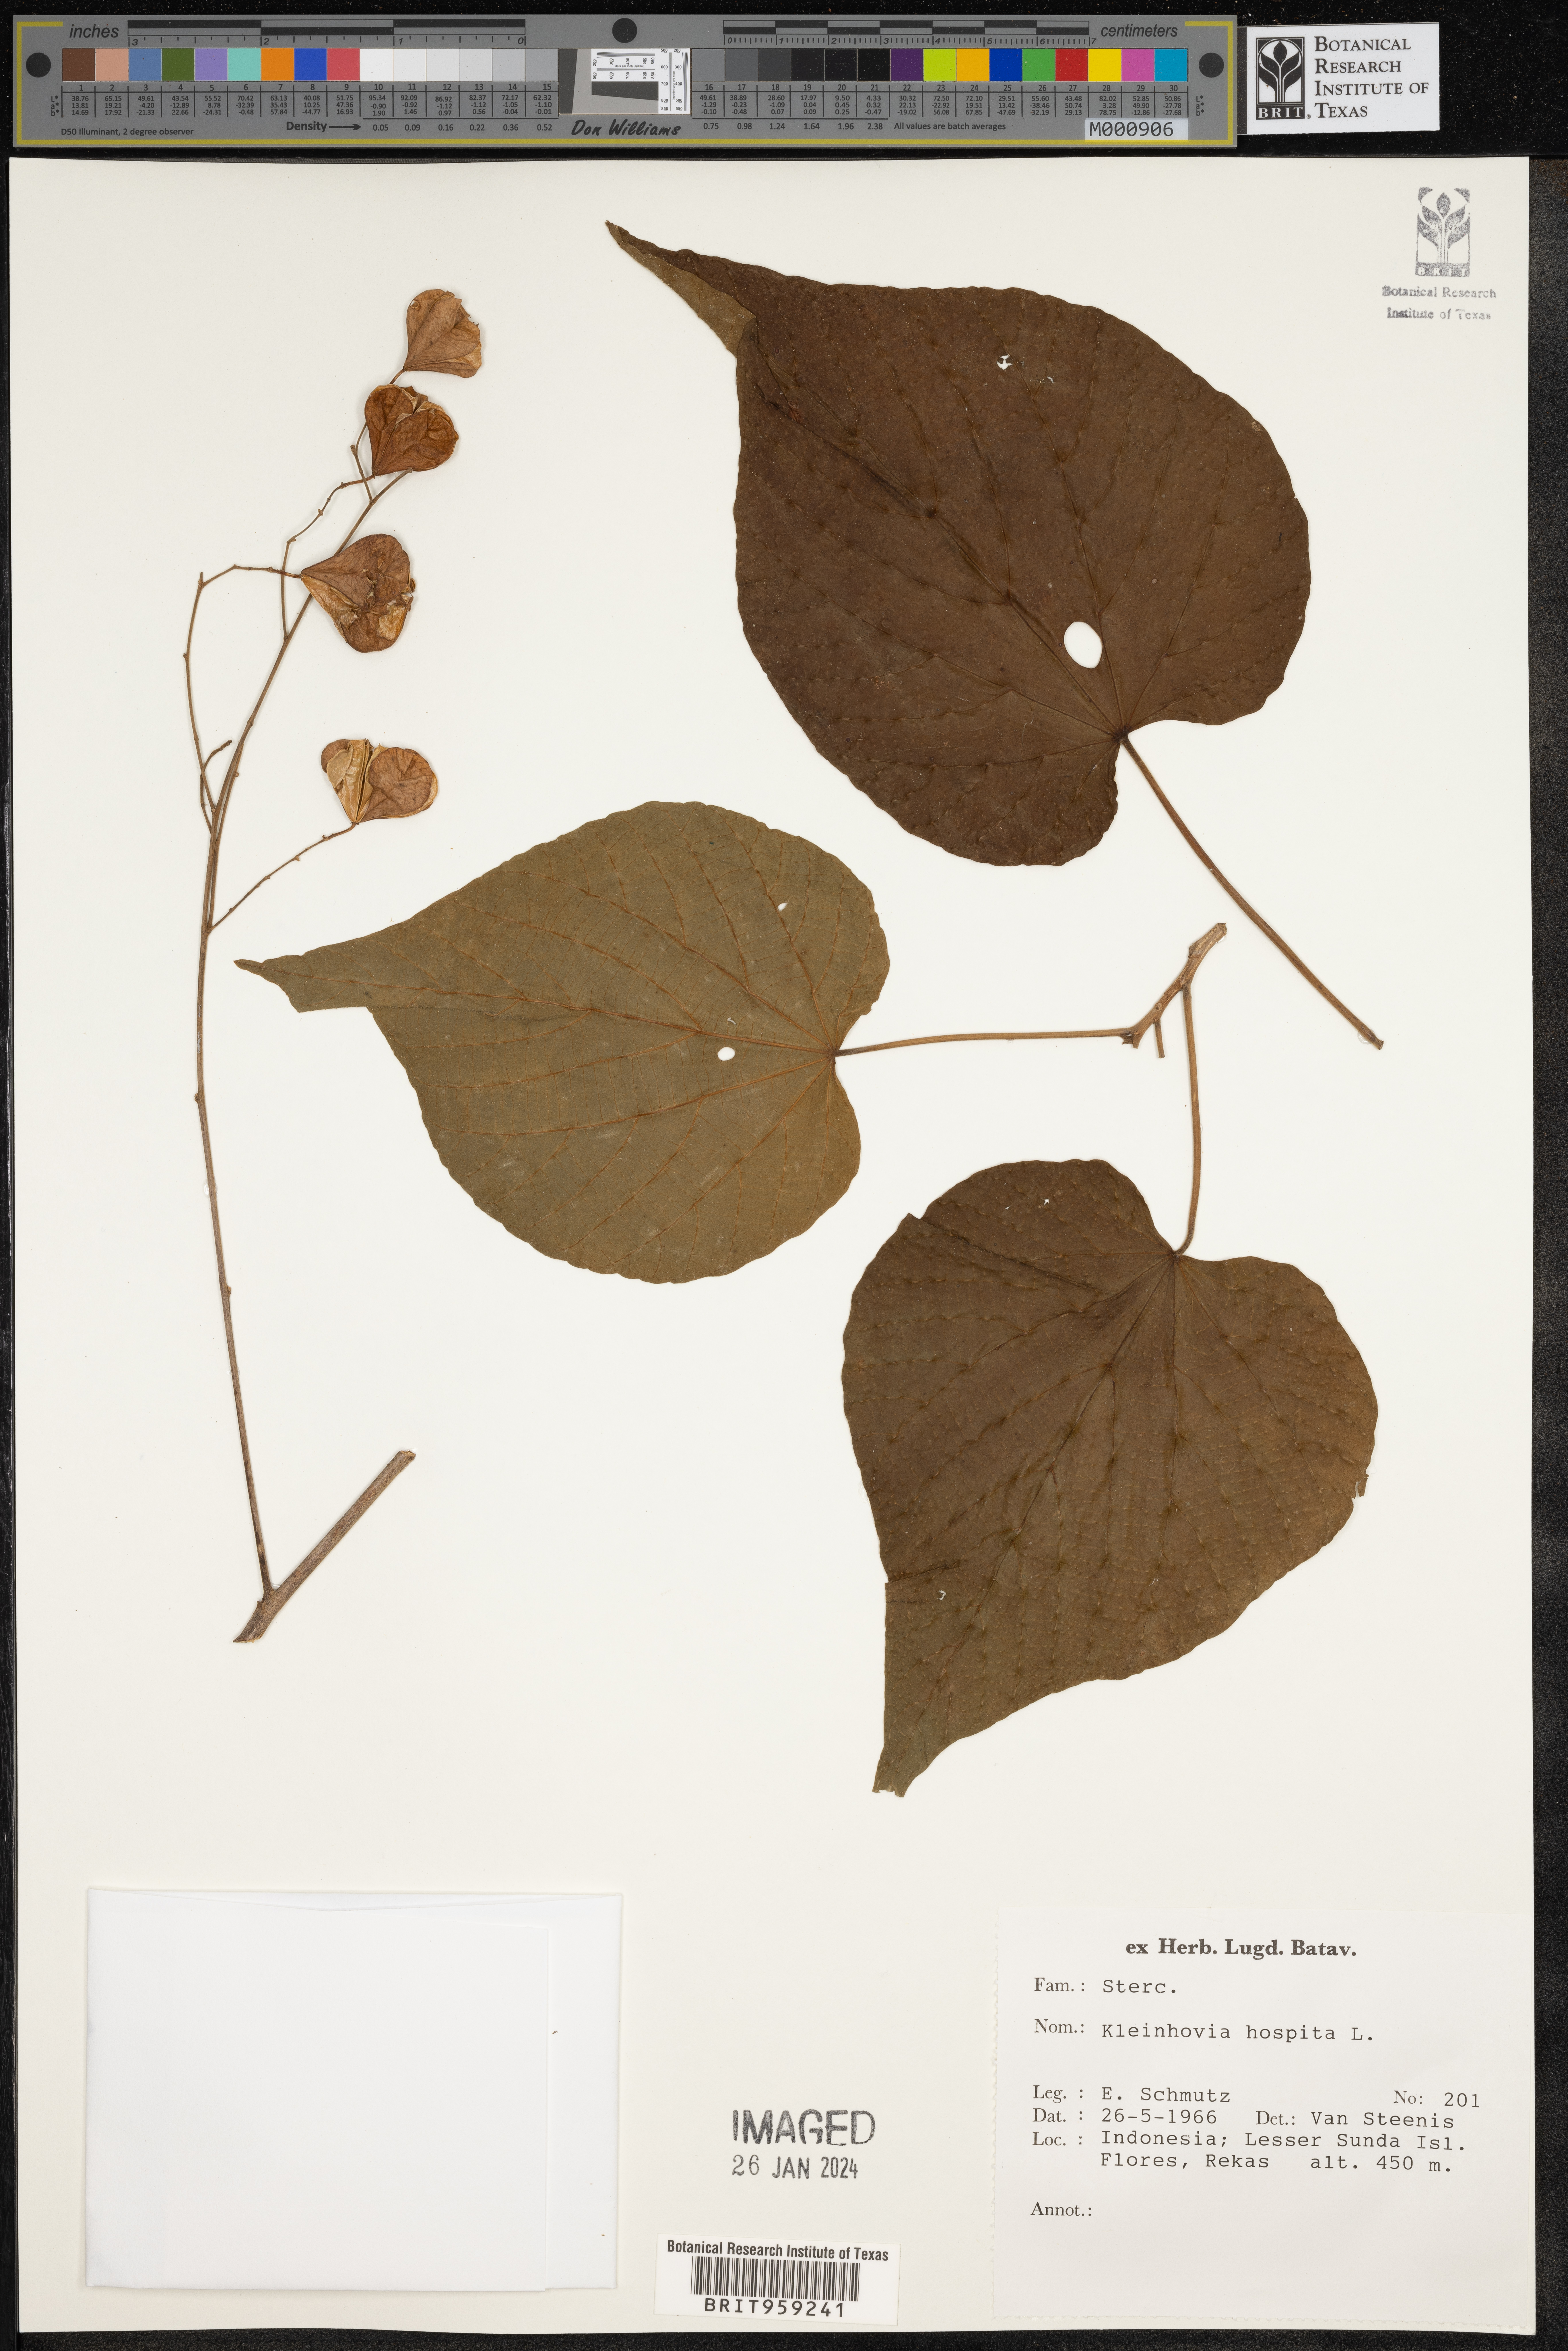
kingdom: Plantae
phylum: Tracheophyta
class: Magnoliopsida
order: Malvales
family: Malvaceae
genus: Kleinhovia
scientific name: Kleinhovia hospita
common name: Guest-tree
